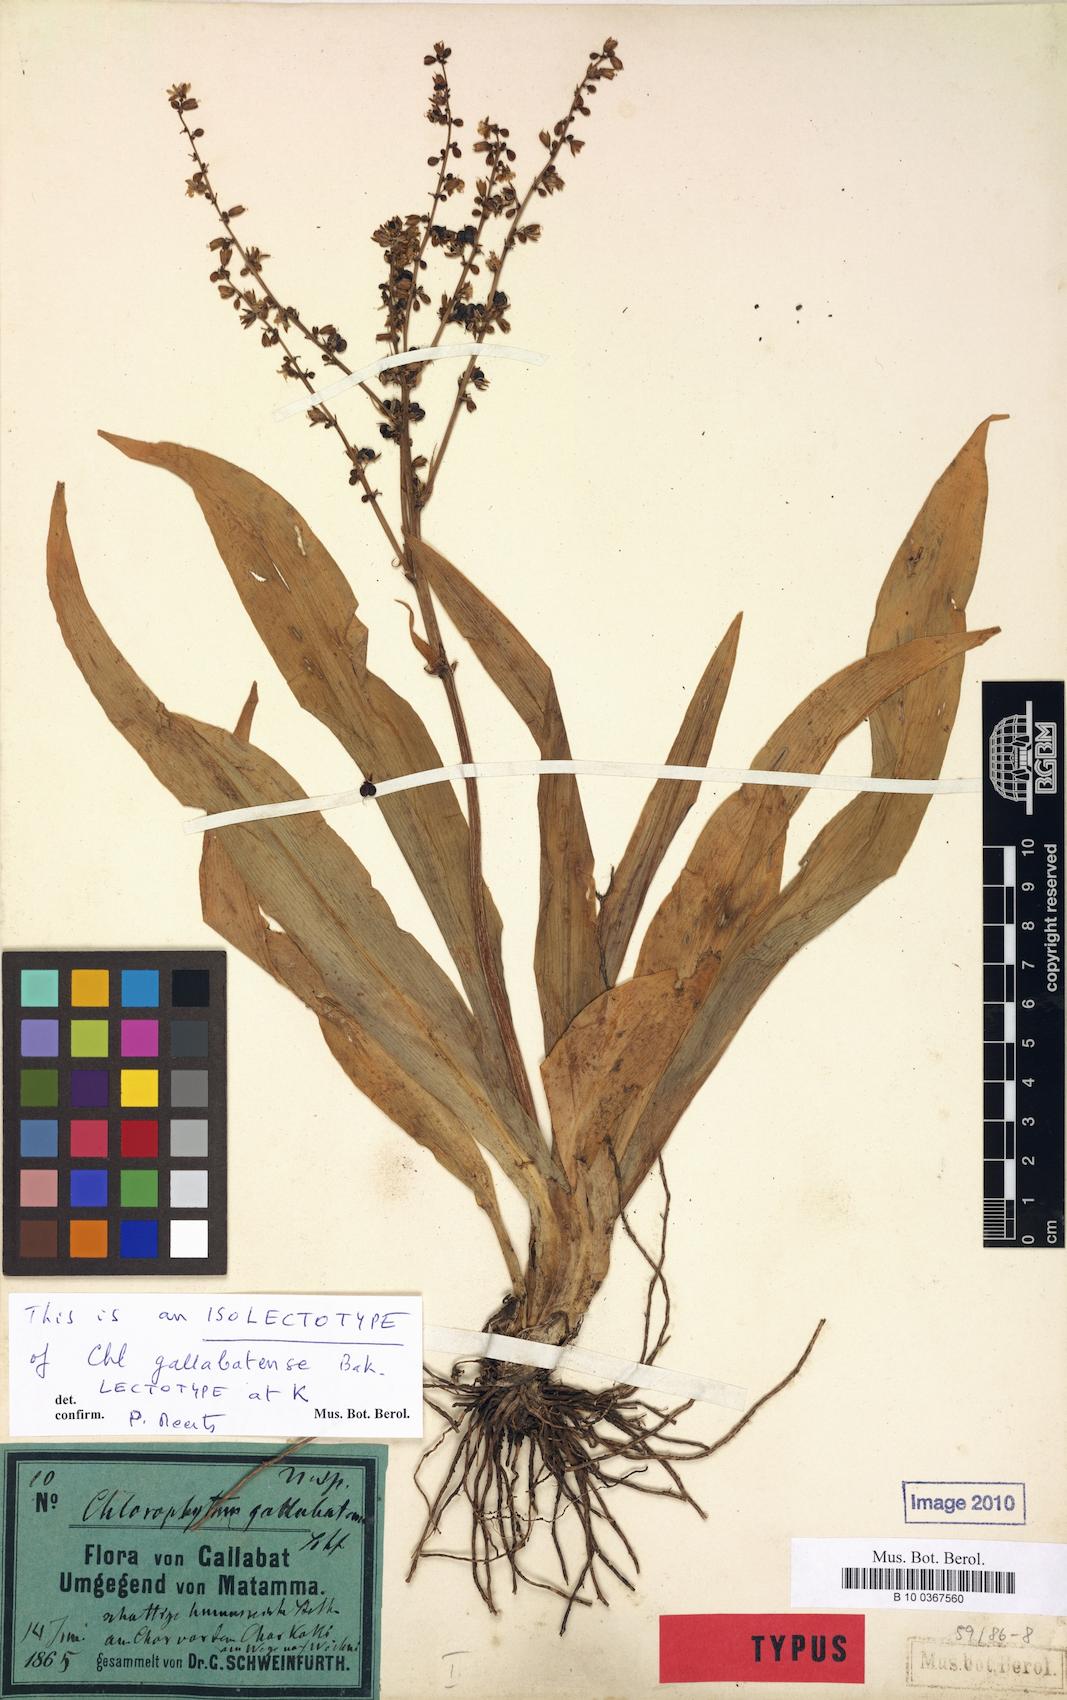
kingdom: Plantae
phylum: Tracheophyta
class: Liliopsida
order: Asparagales
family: Asparagaceae
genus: Chlorophytum
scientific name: Chlorophytum gallabatense
